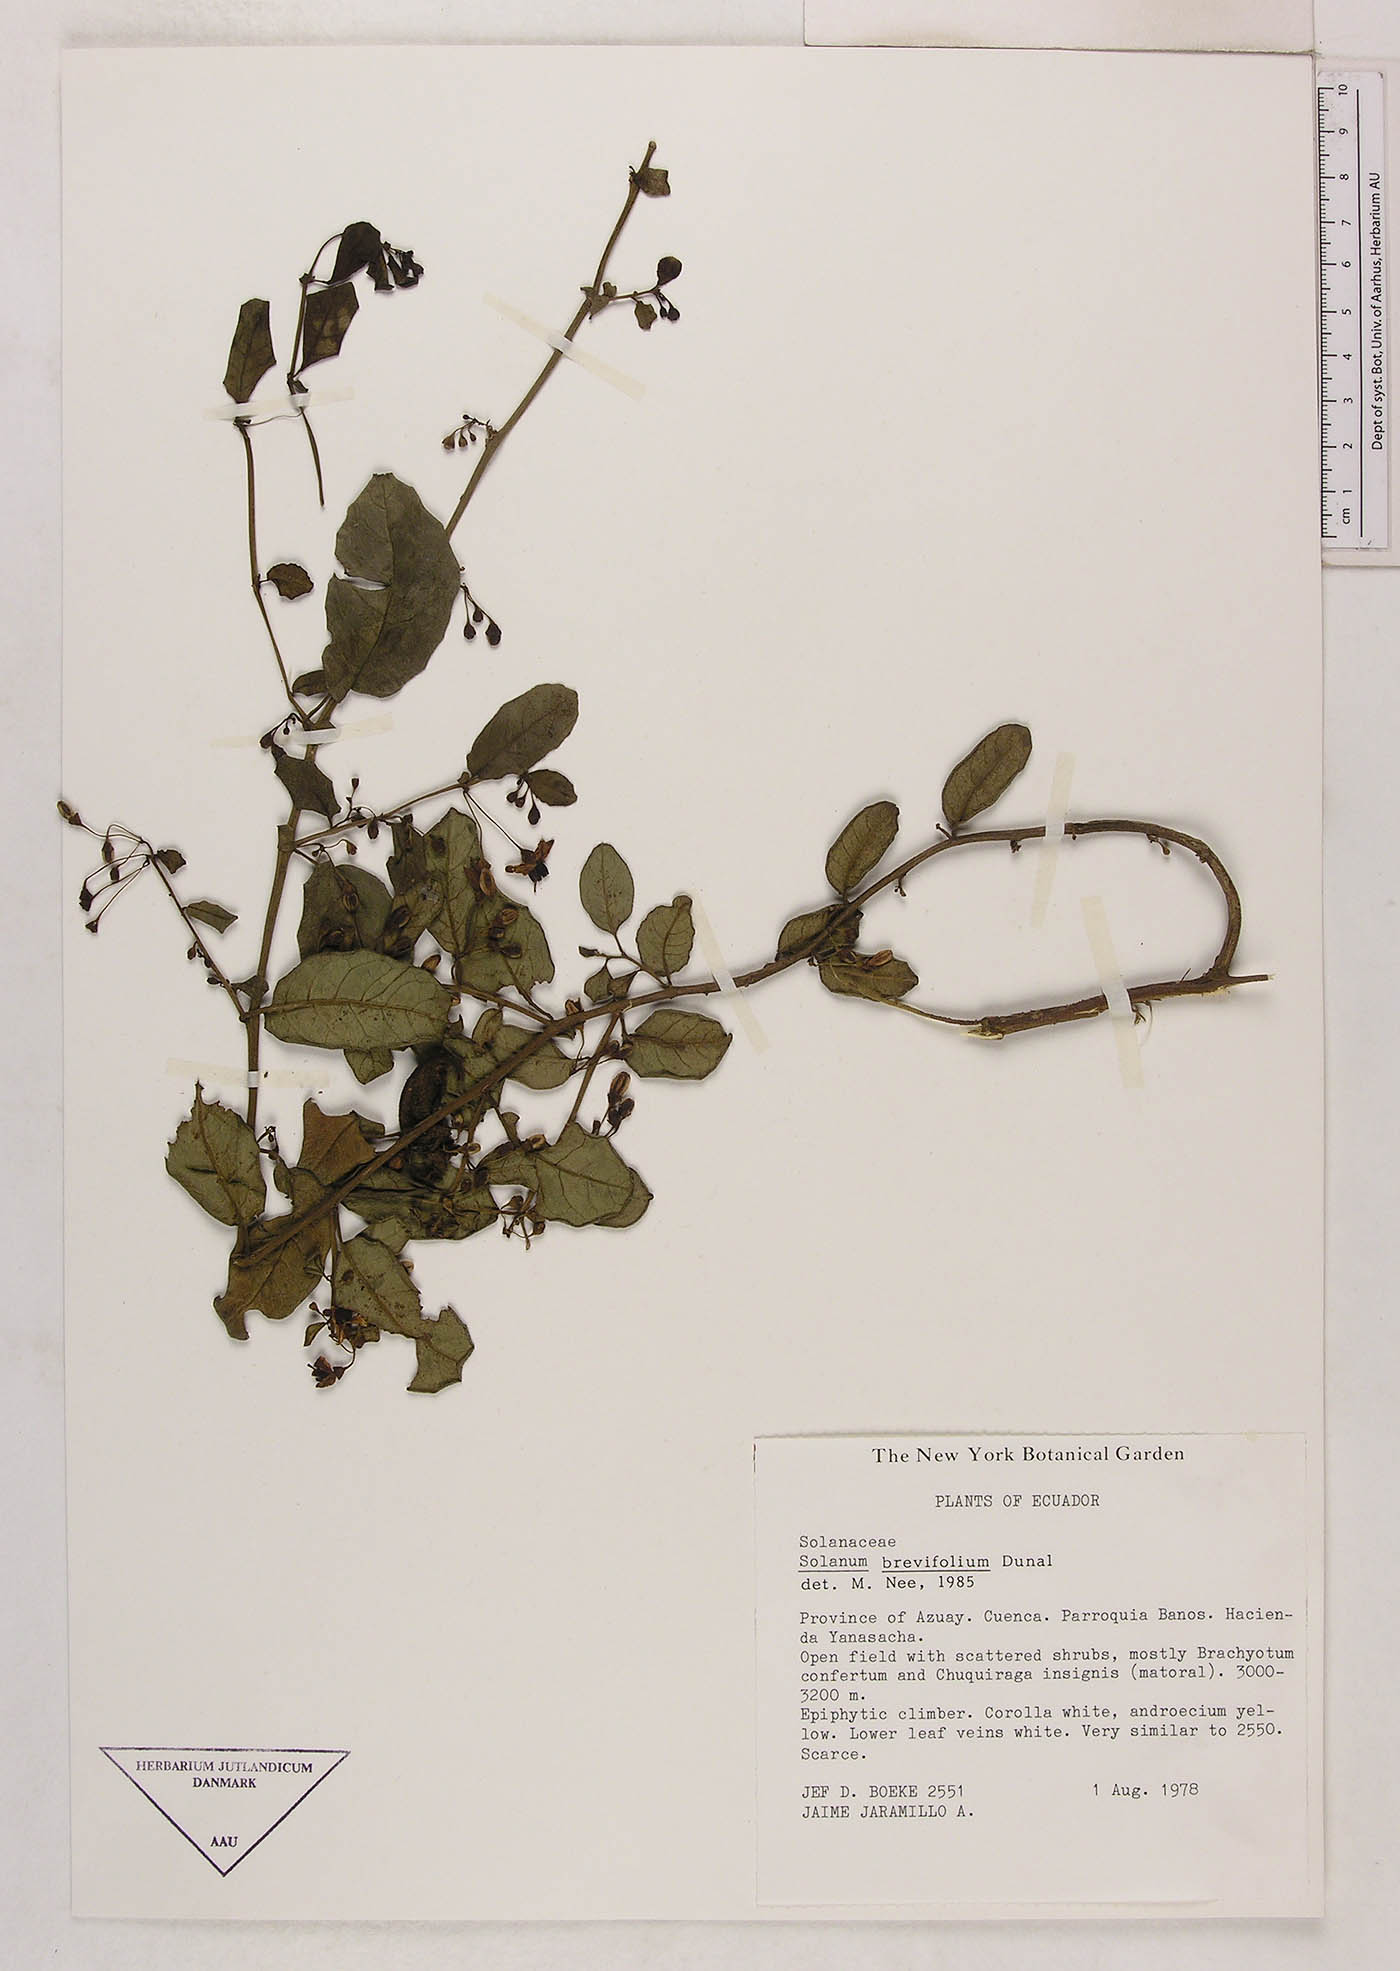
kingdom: Plantae
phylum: Tracheophyta
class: Magnoliopsida
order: Solanales
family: Solanaceae
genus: Solanum
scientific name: Solanum brevifolium
